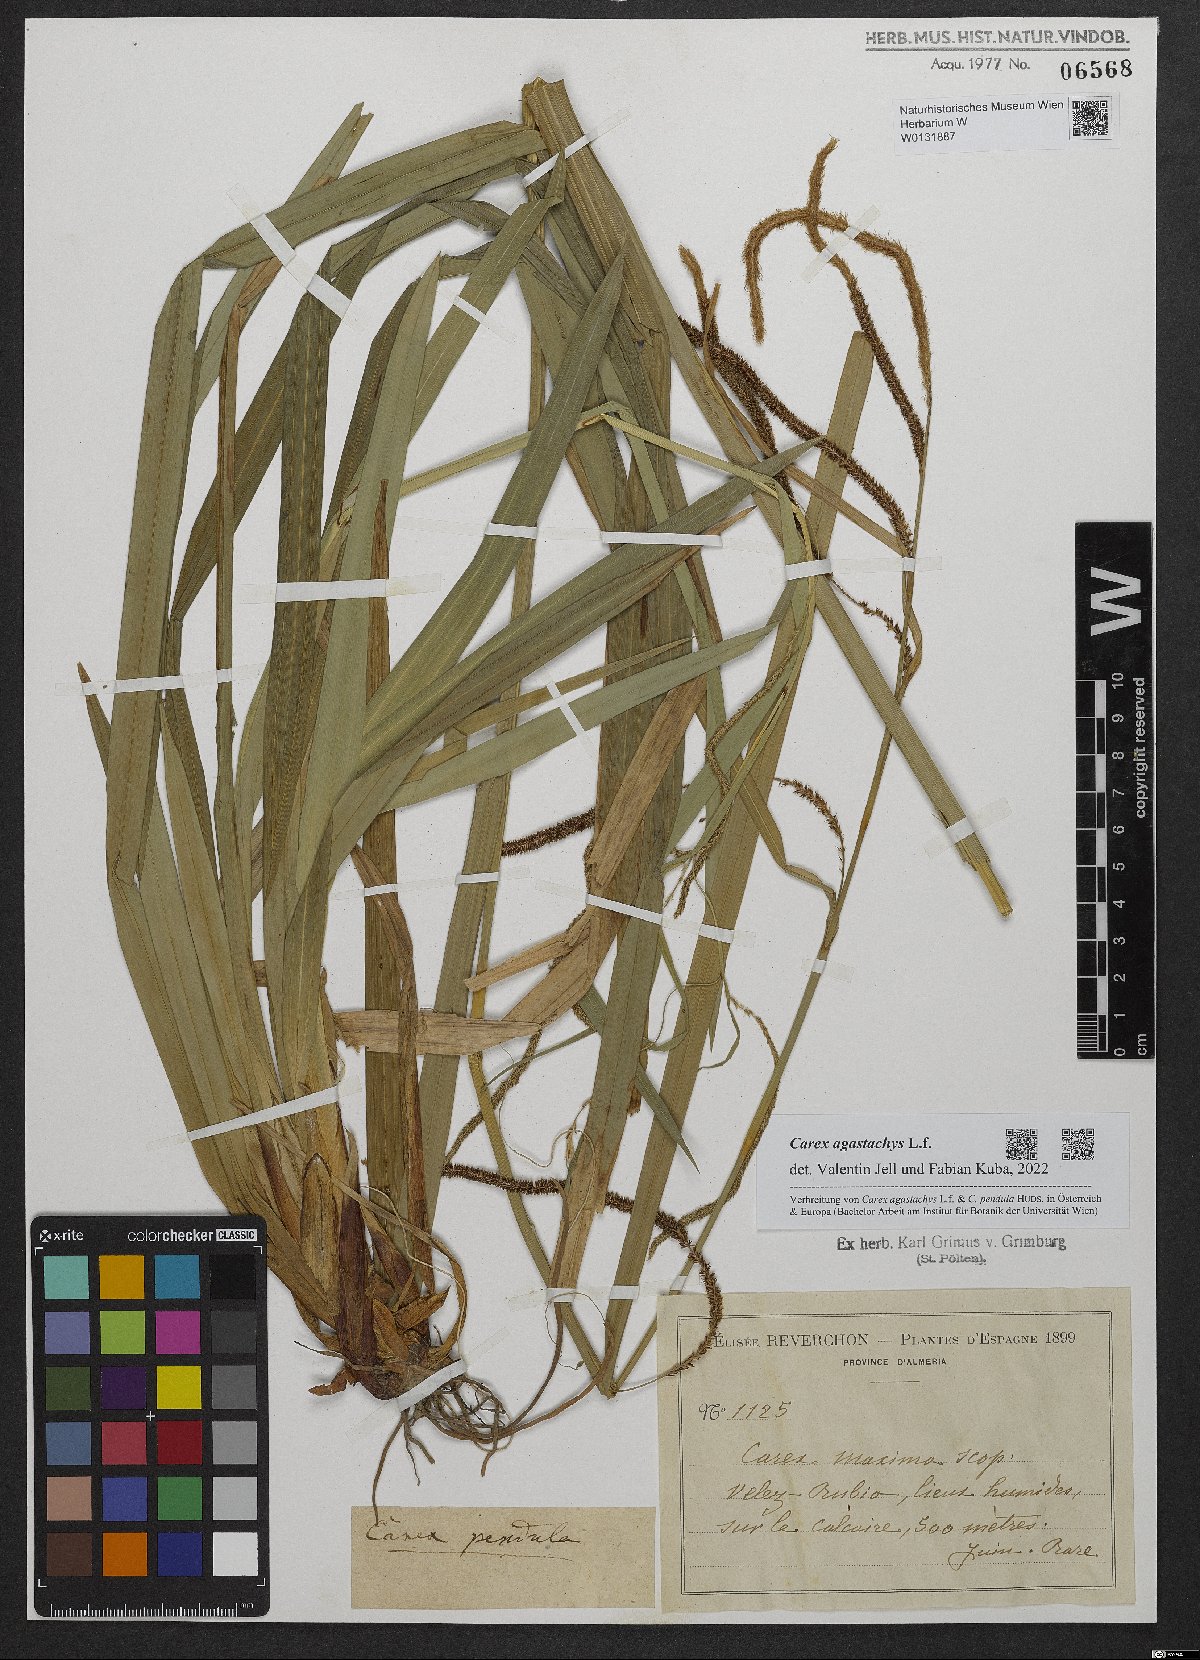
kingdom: Plantae
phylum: Tracheophyta
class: Liliopsida
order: Poales
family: Cyperaceae
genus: Carex
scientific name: Carex agastachys
